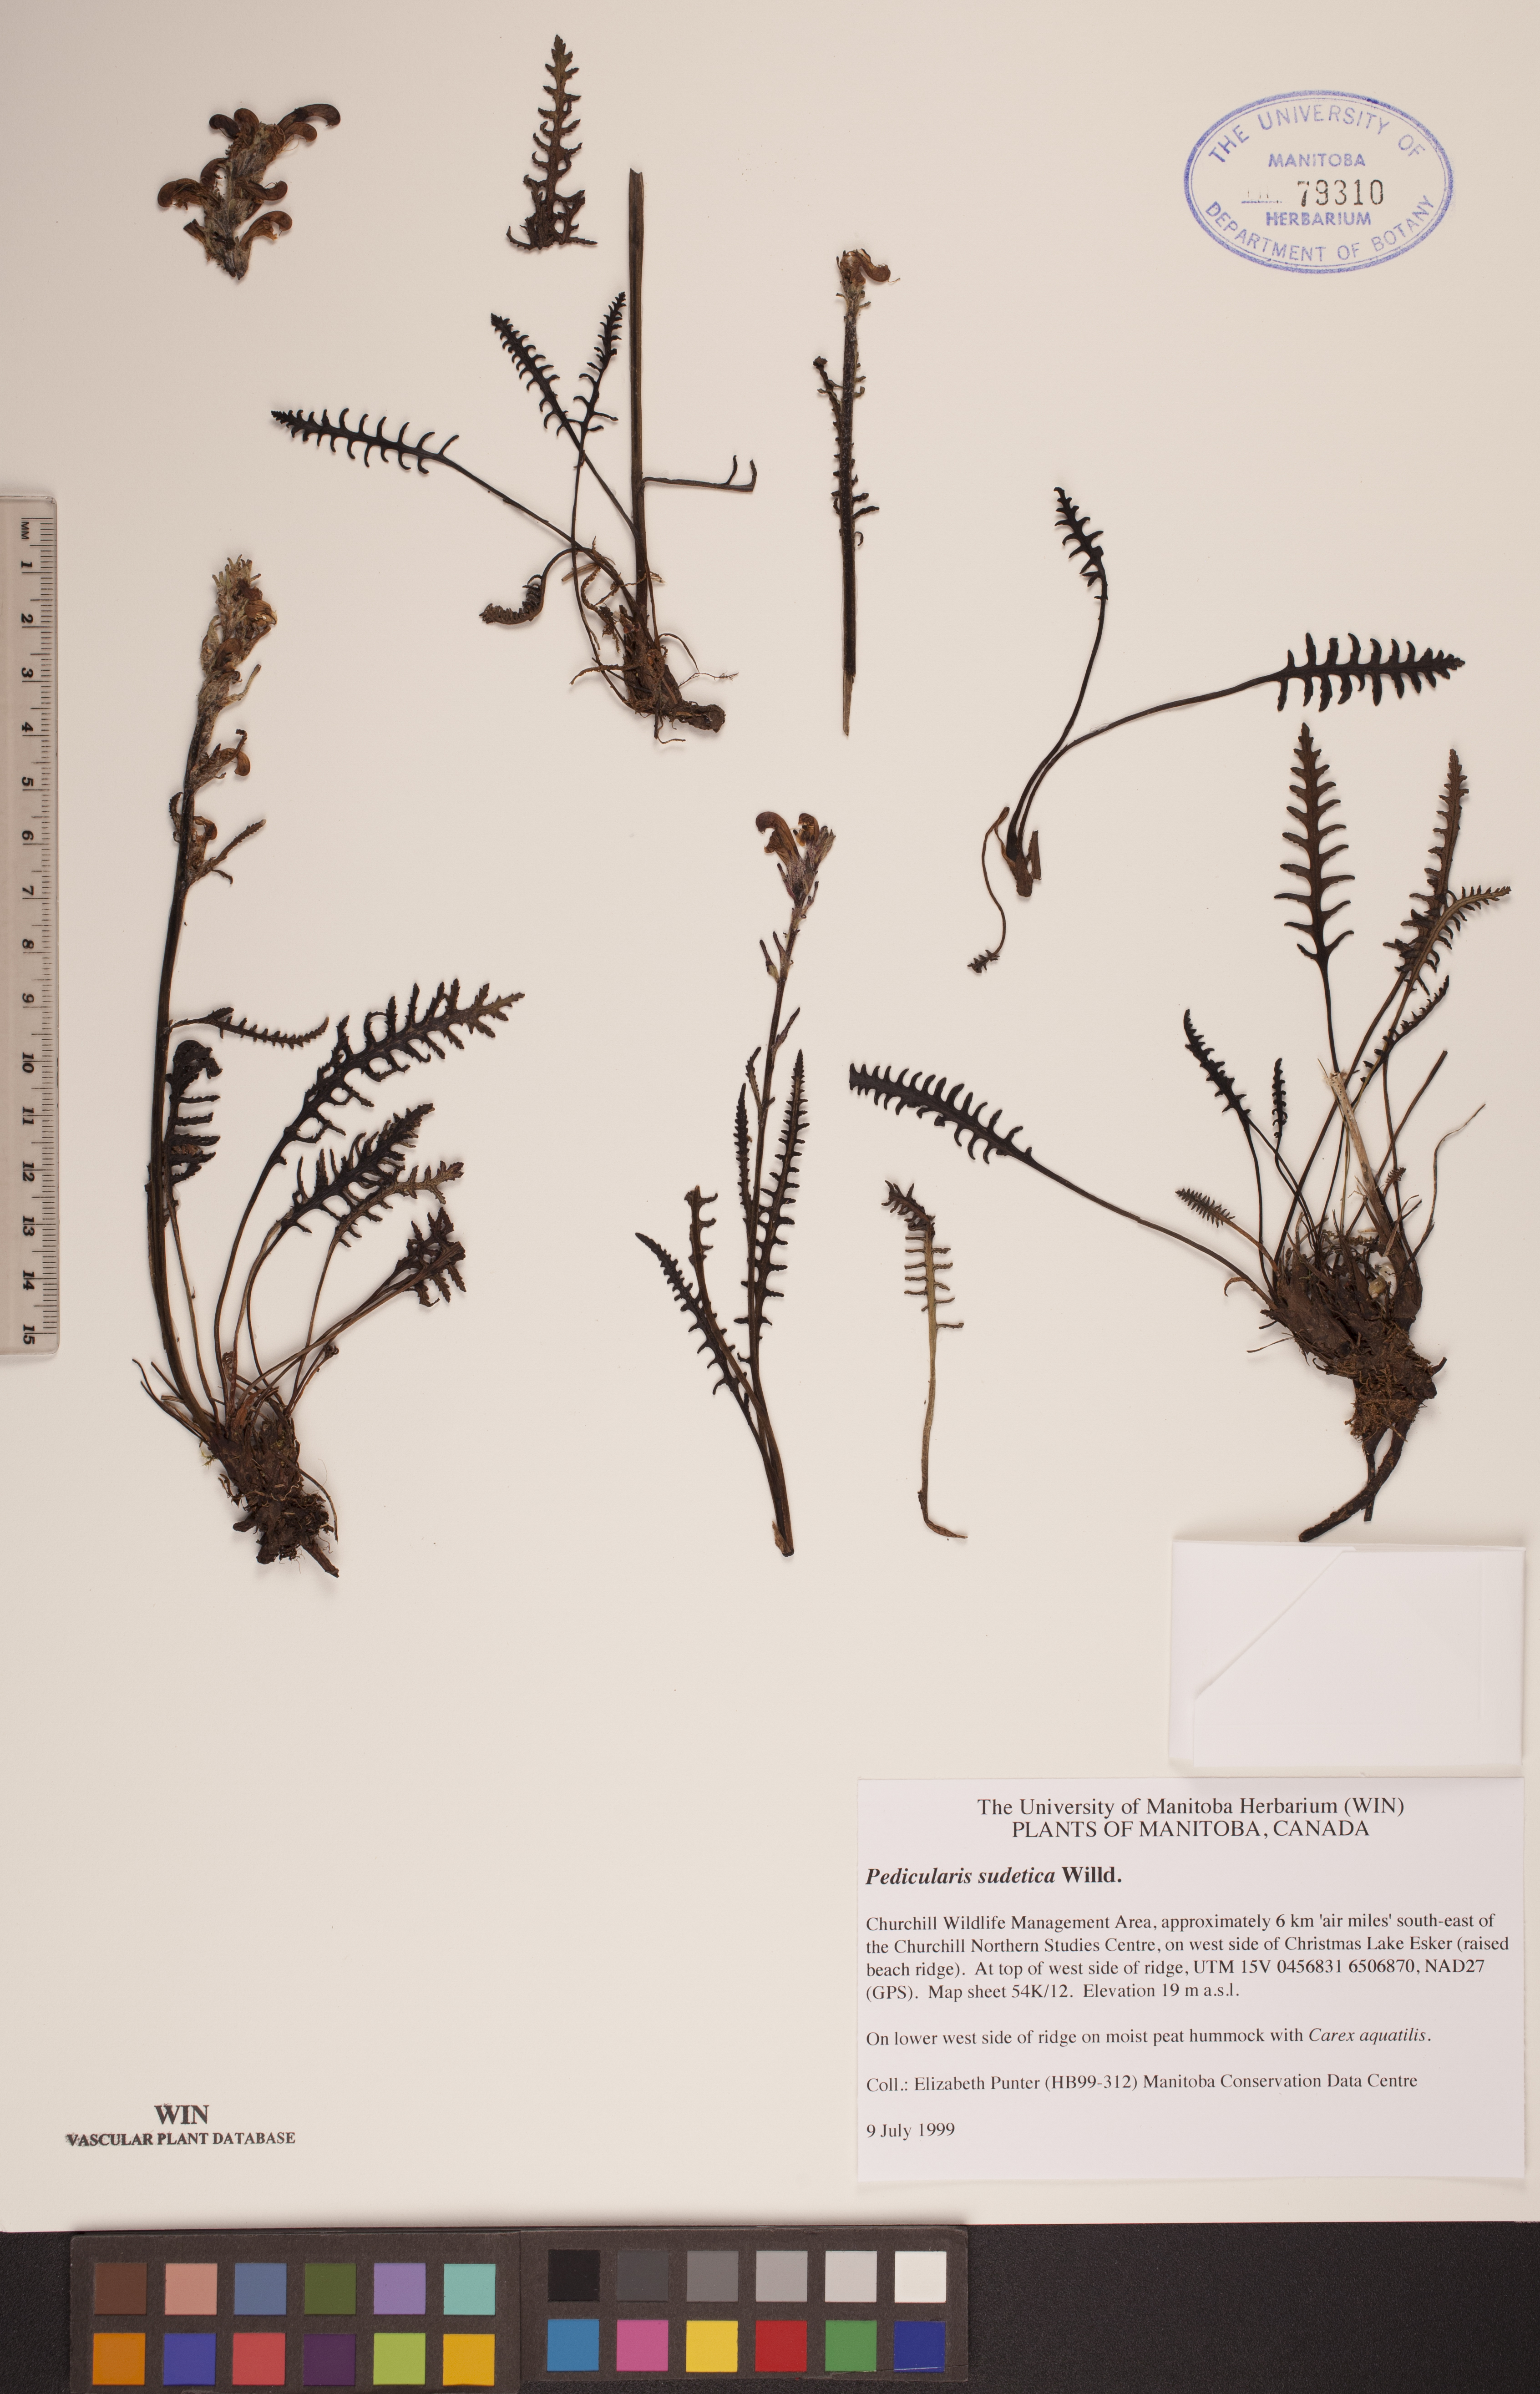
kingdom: Plantae
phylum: Tracheophyta
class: Magnoliopsida
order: Lamiales
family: Orobanchaceae
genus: Pedicularis
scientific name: Pedicularis sudetica
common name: Sudeten lousewort
